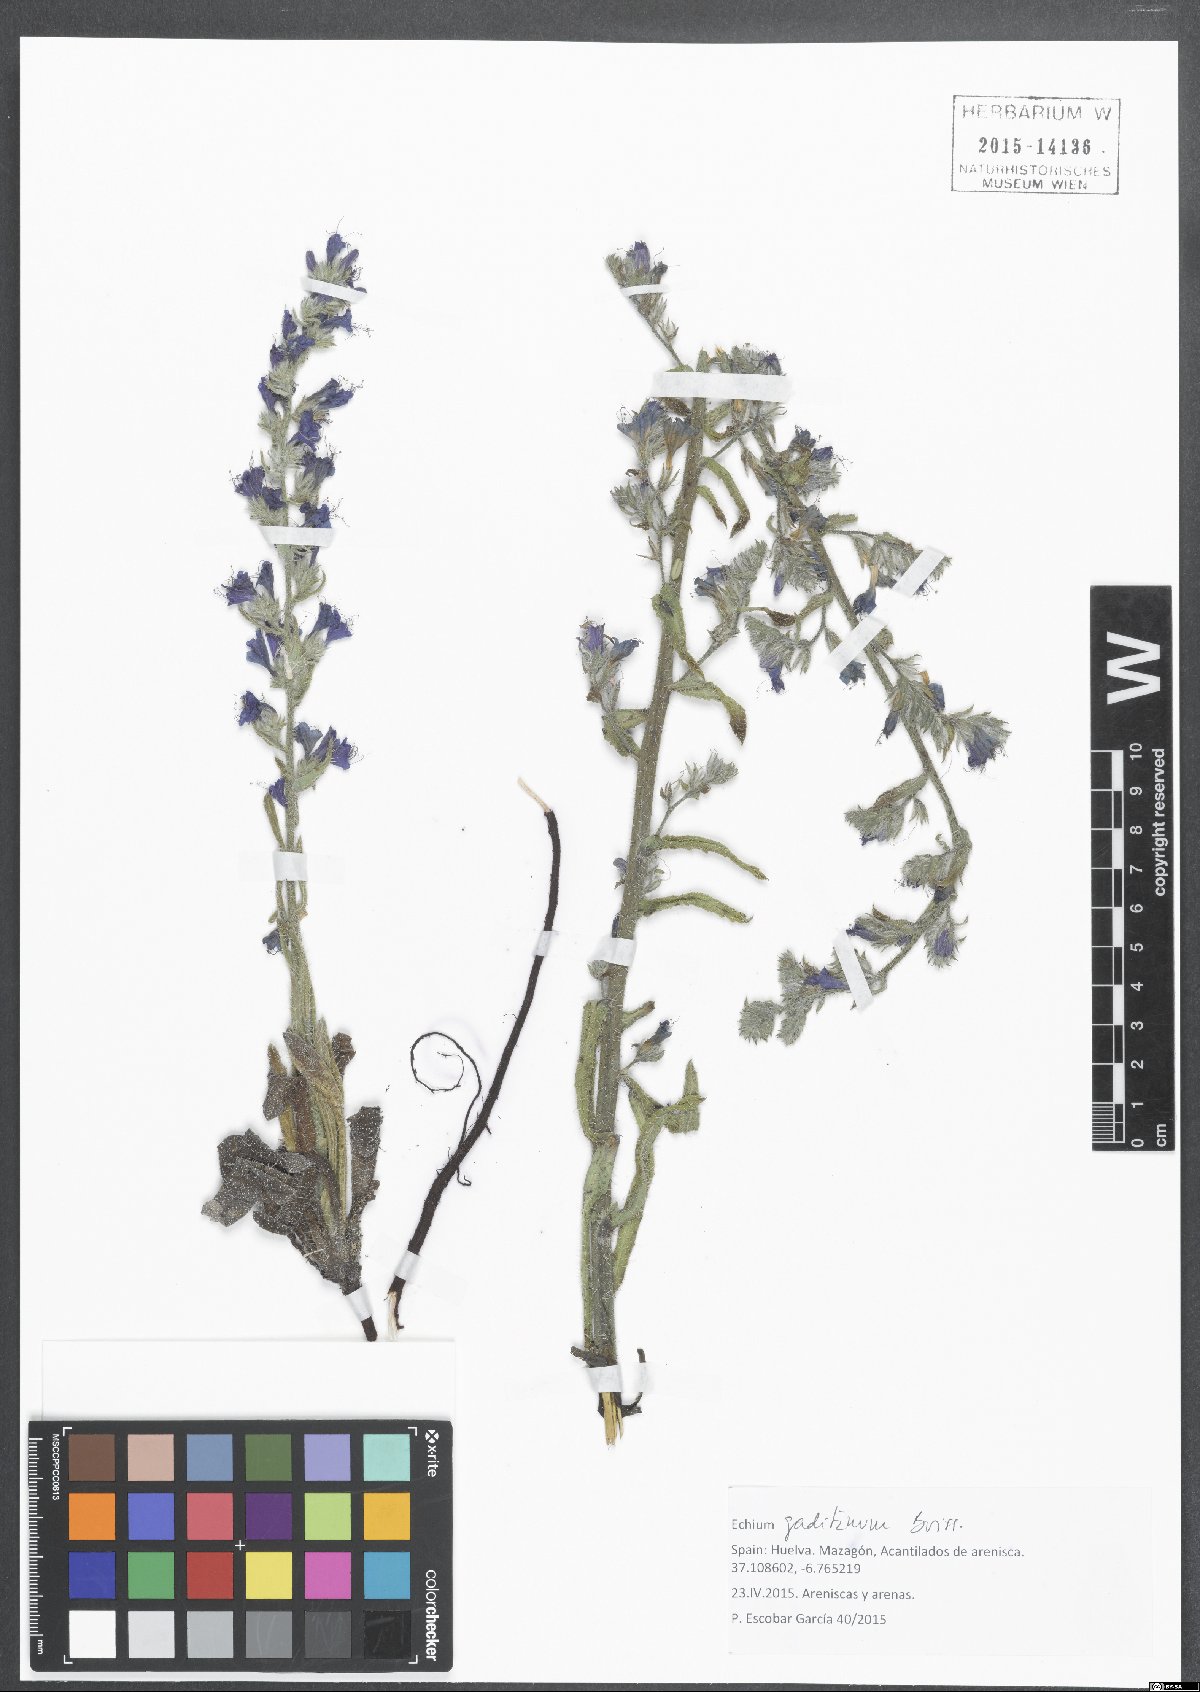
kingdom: Plantae
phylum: Tracheophyta
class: Magnoliopsida
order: Boraginales
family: Boraginaceae
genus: Echium
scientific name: Echium gaditanum
